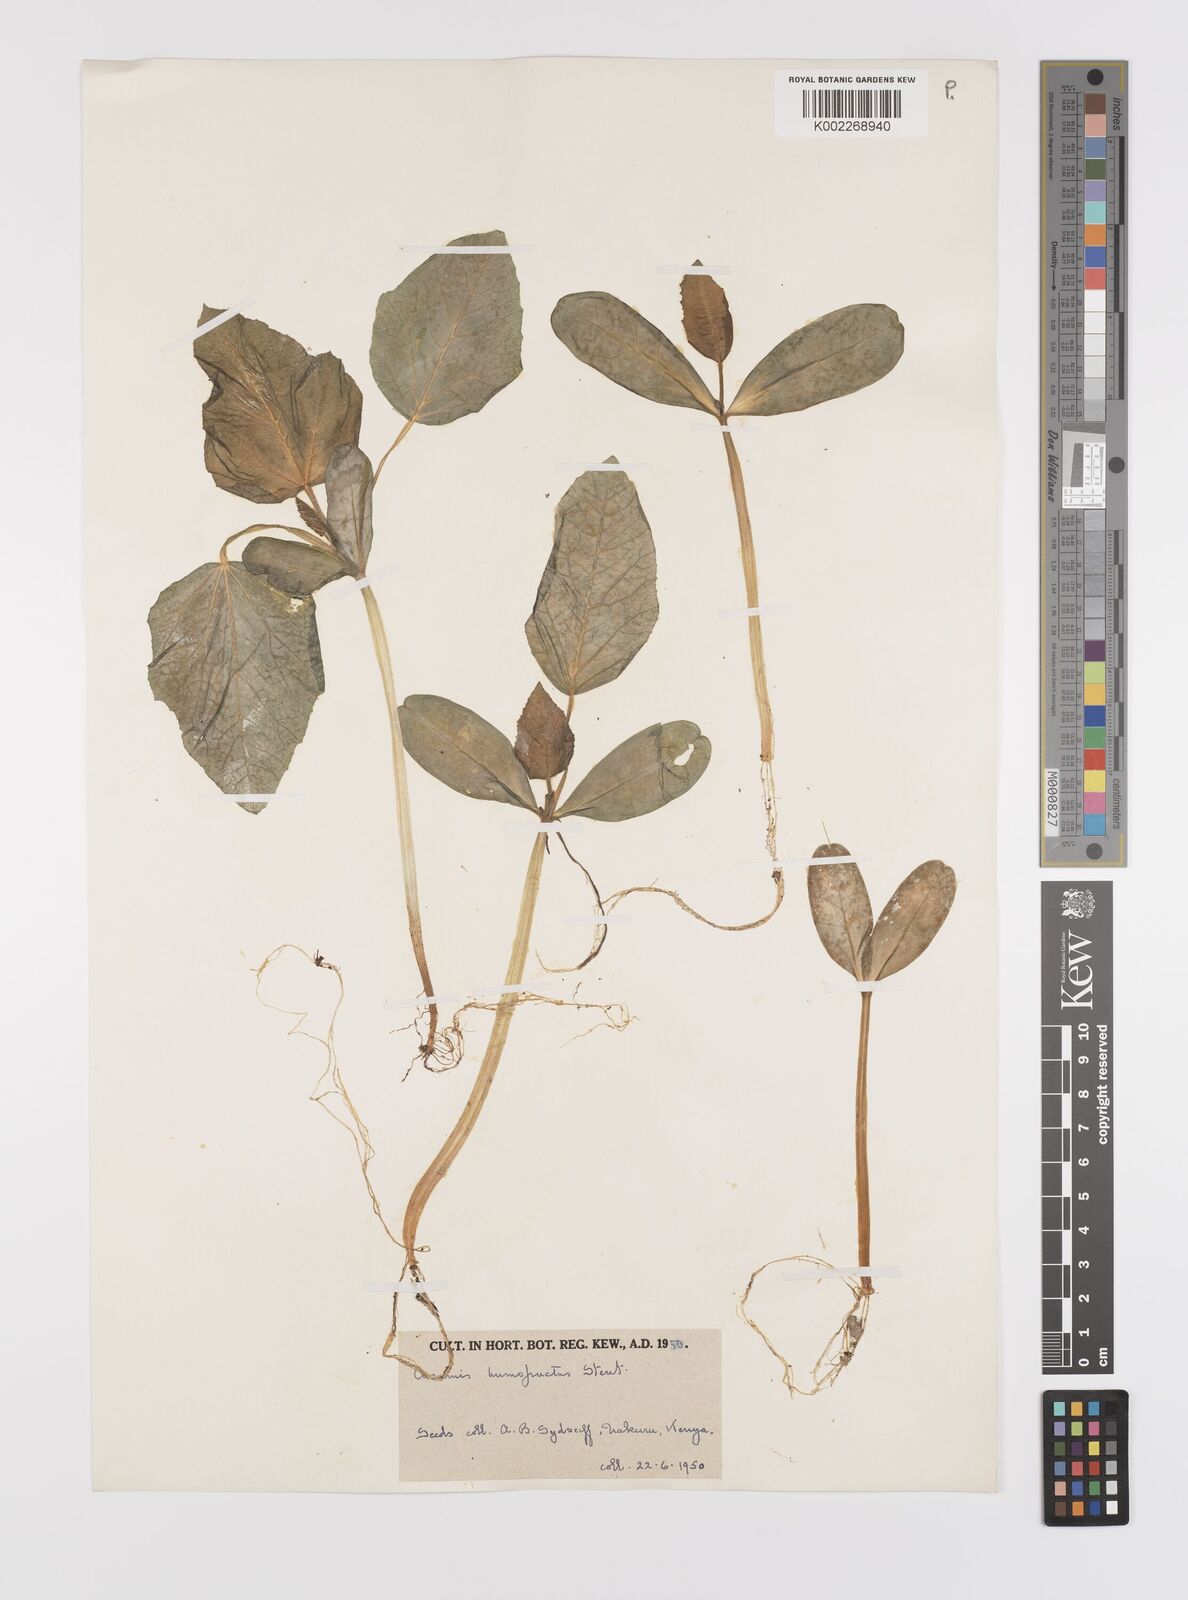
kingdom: Plantae
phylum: Tracheophyta
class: Magnoliopsida
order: Cucurbitales
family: Cucurbitaceae
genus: Cucumis
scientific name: Cucumis humofructus
